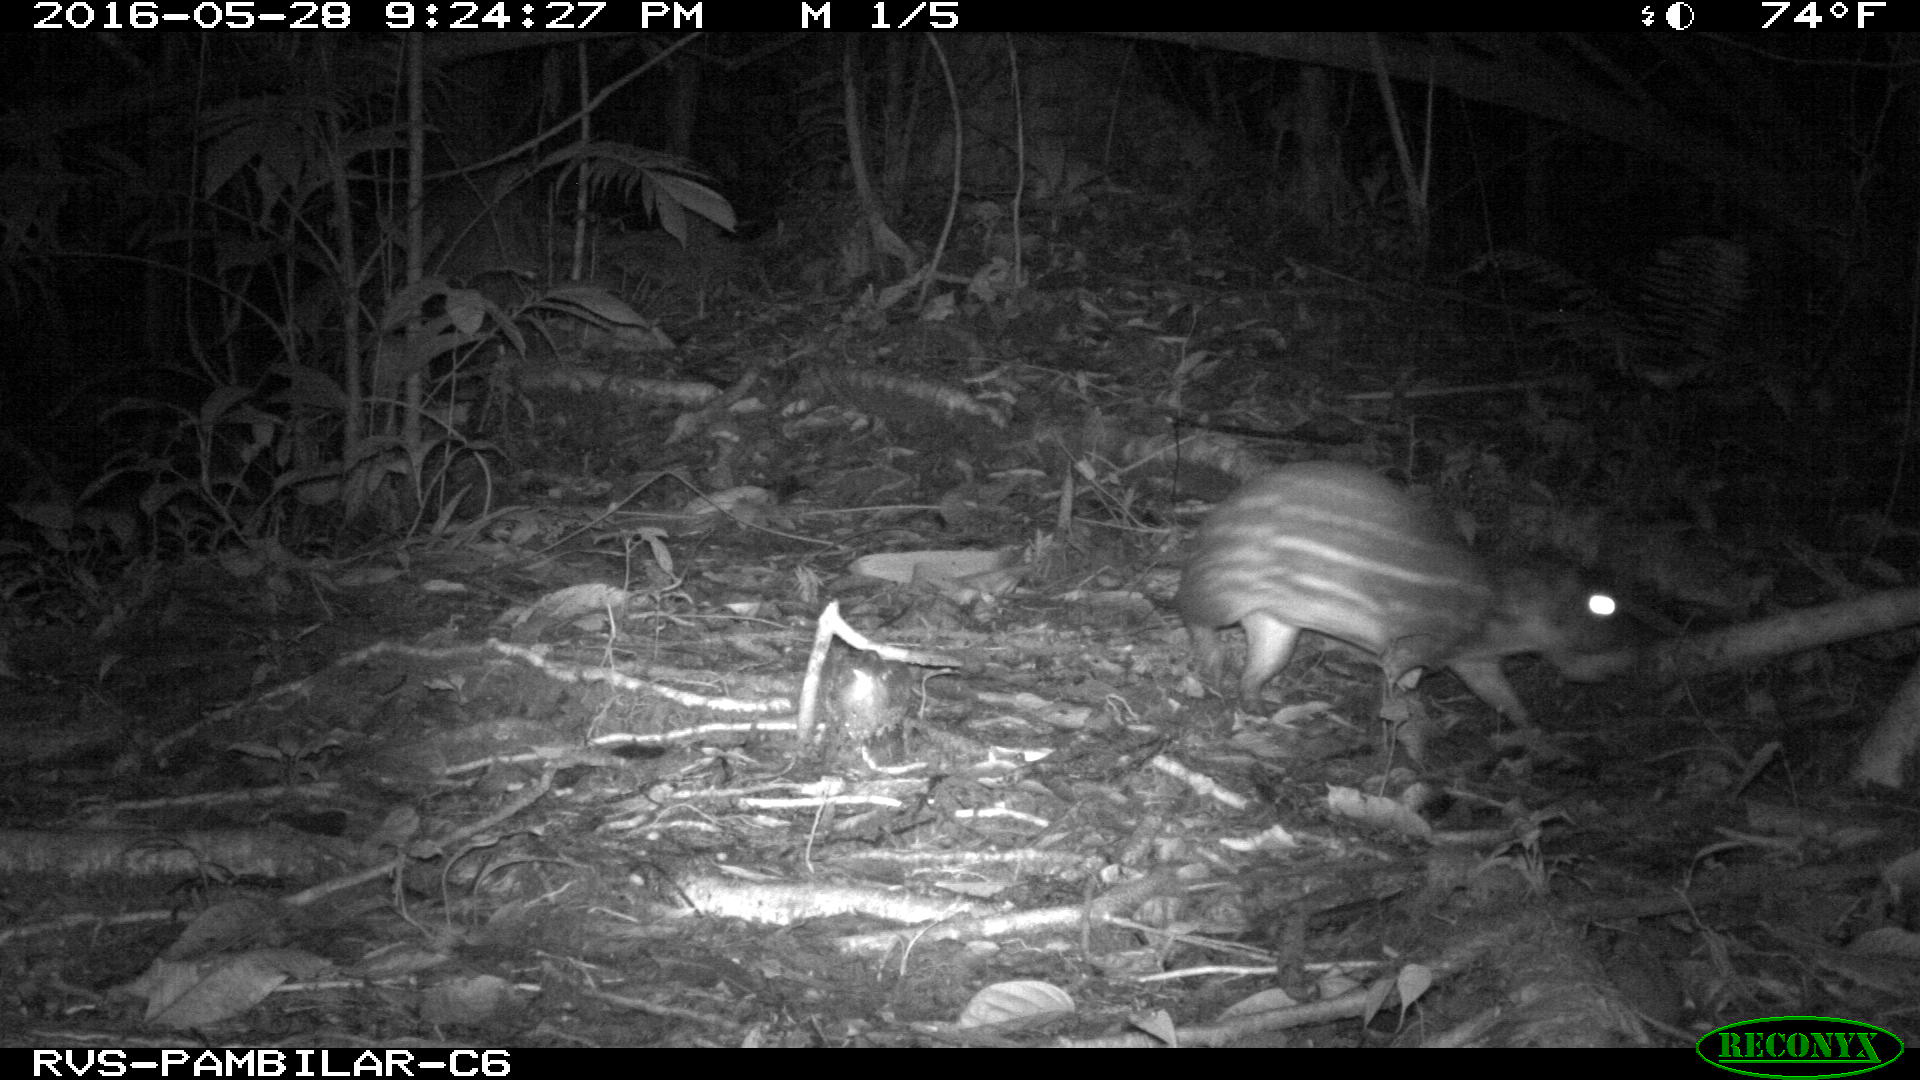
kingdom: Animalia
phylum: Chordata
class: Mammalia
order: Rodentia
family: Cuniculidae
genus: Cuniculus
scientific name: Cuniculus paca
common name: Lowland paca
